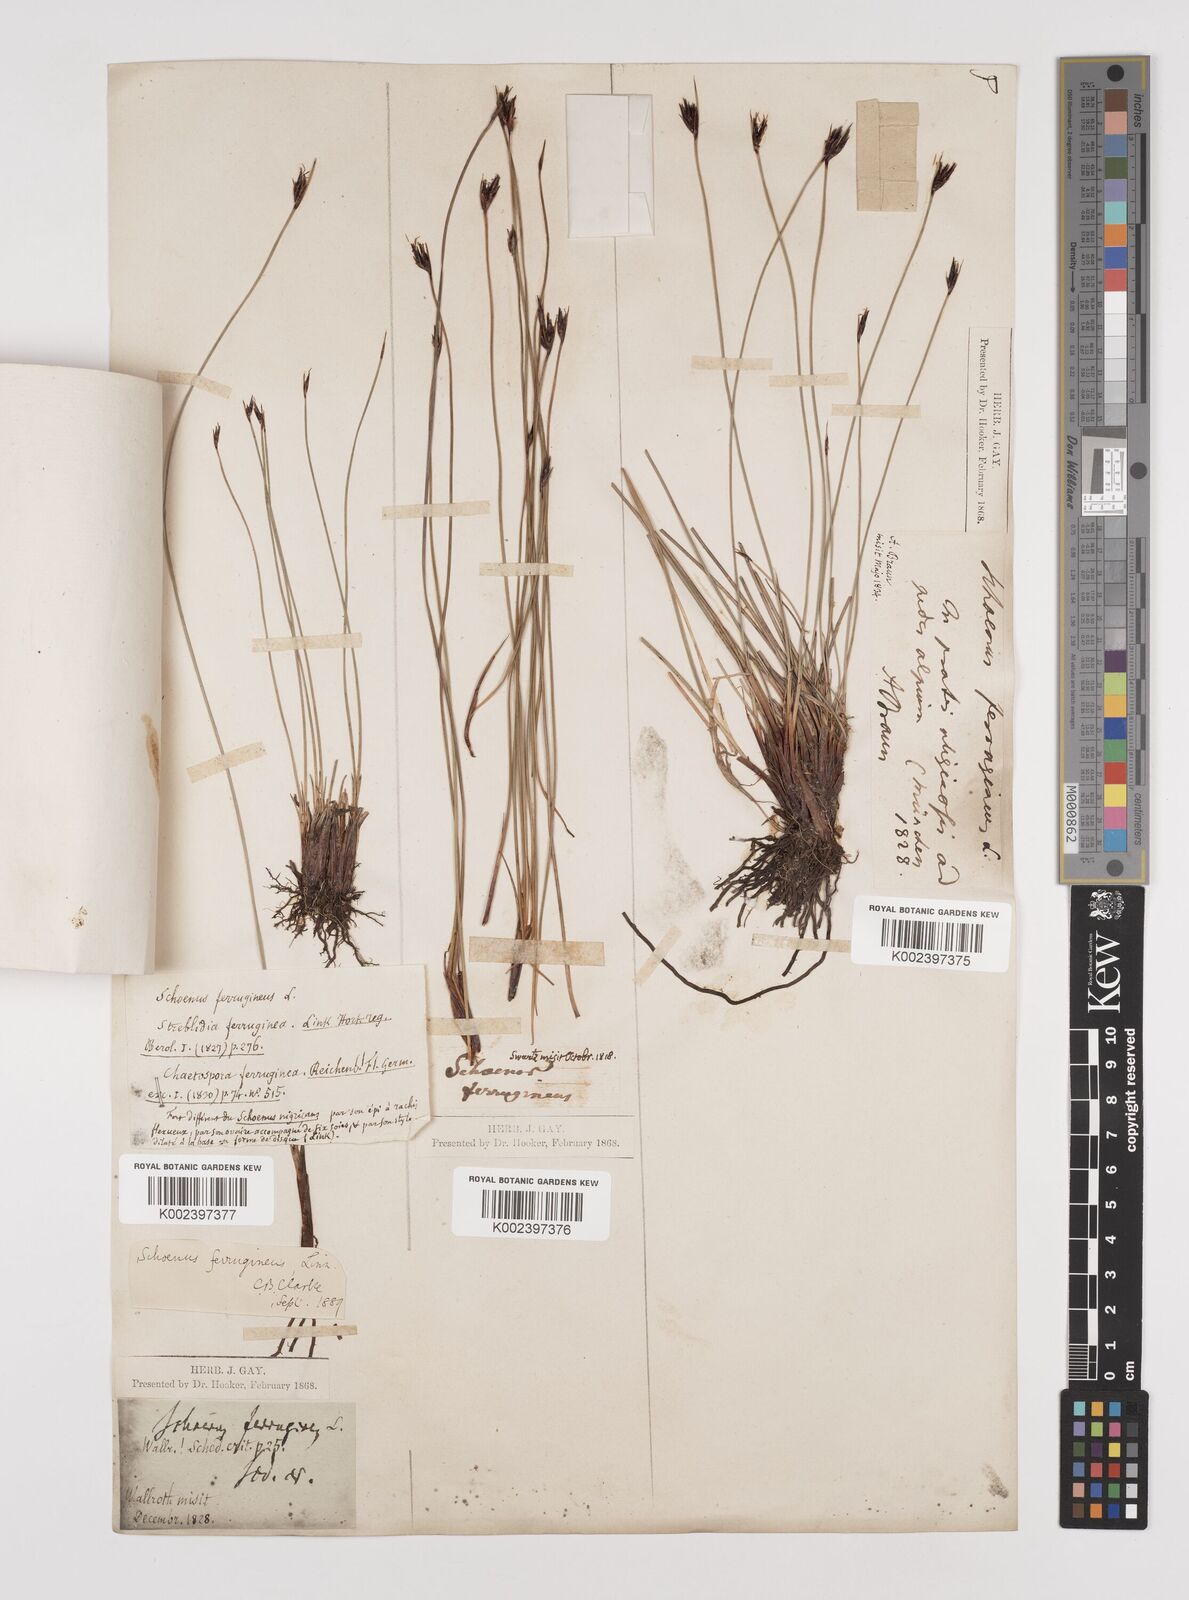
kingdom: Plantae
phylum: Tracheophyta
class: Liliopsida
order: Poales
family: Cyperaceae
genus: Schoenus
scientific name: Schoenus ferrugineus
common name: Brown bog-rush
